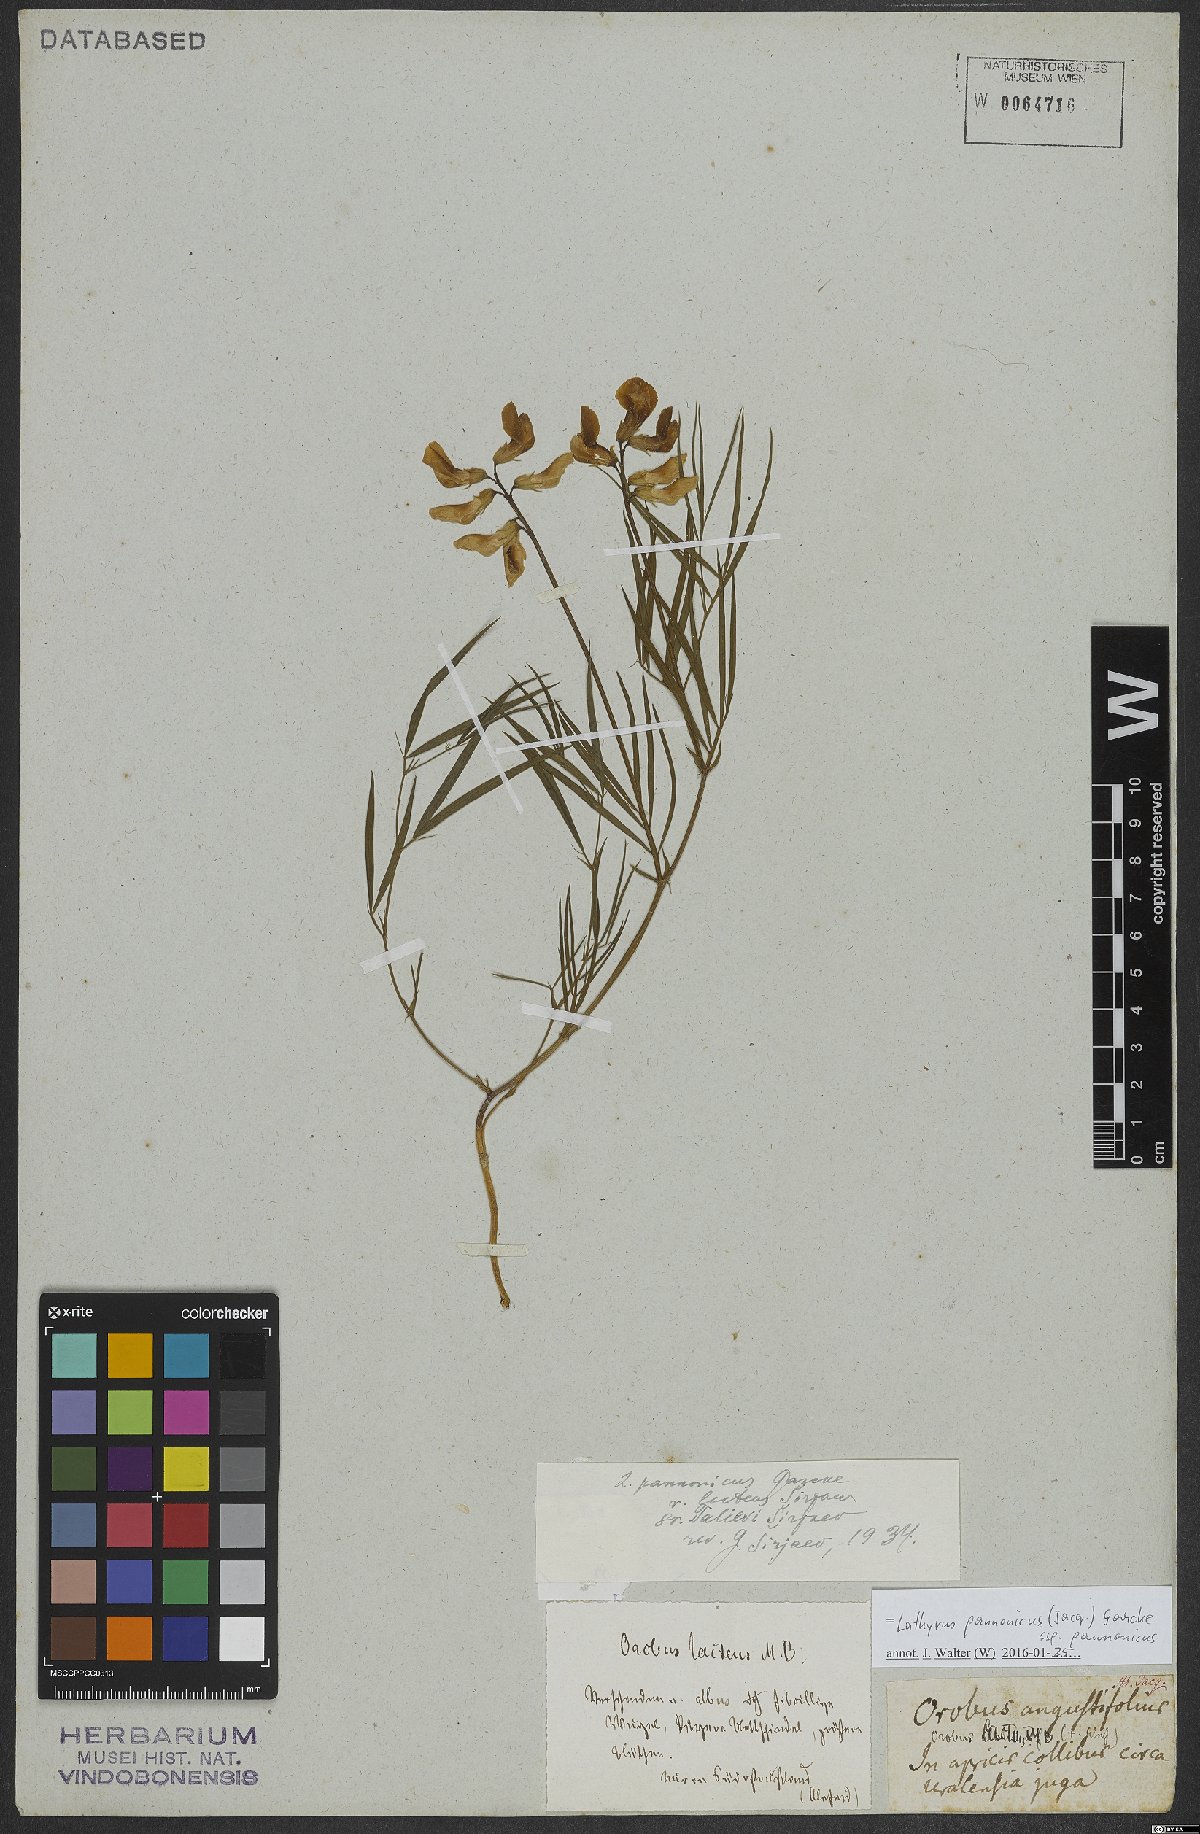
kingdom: Plantae
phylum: Tracheophyta
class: Magnoliopsida
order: Fabales
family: Fabaceae
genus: Lathyrus
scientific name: Lathyrus pannonicus
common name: Pea
